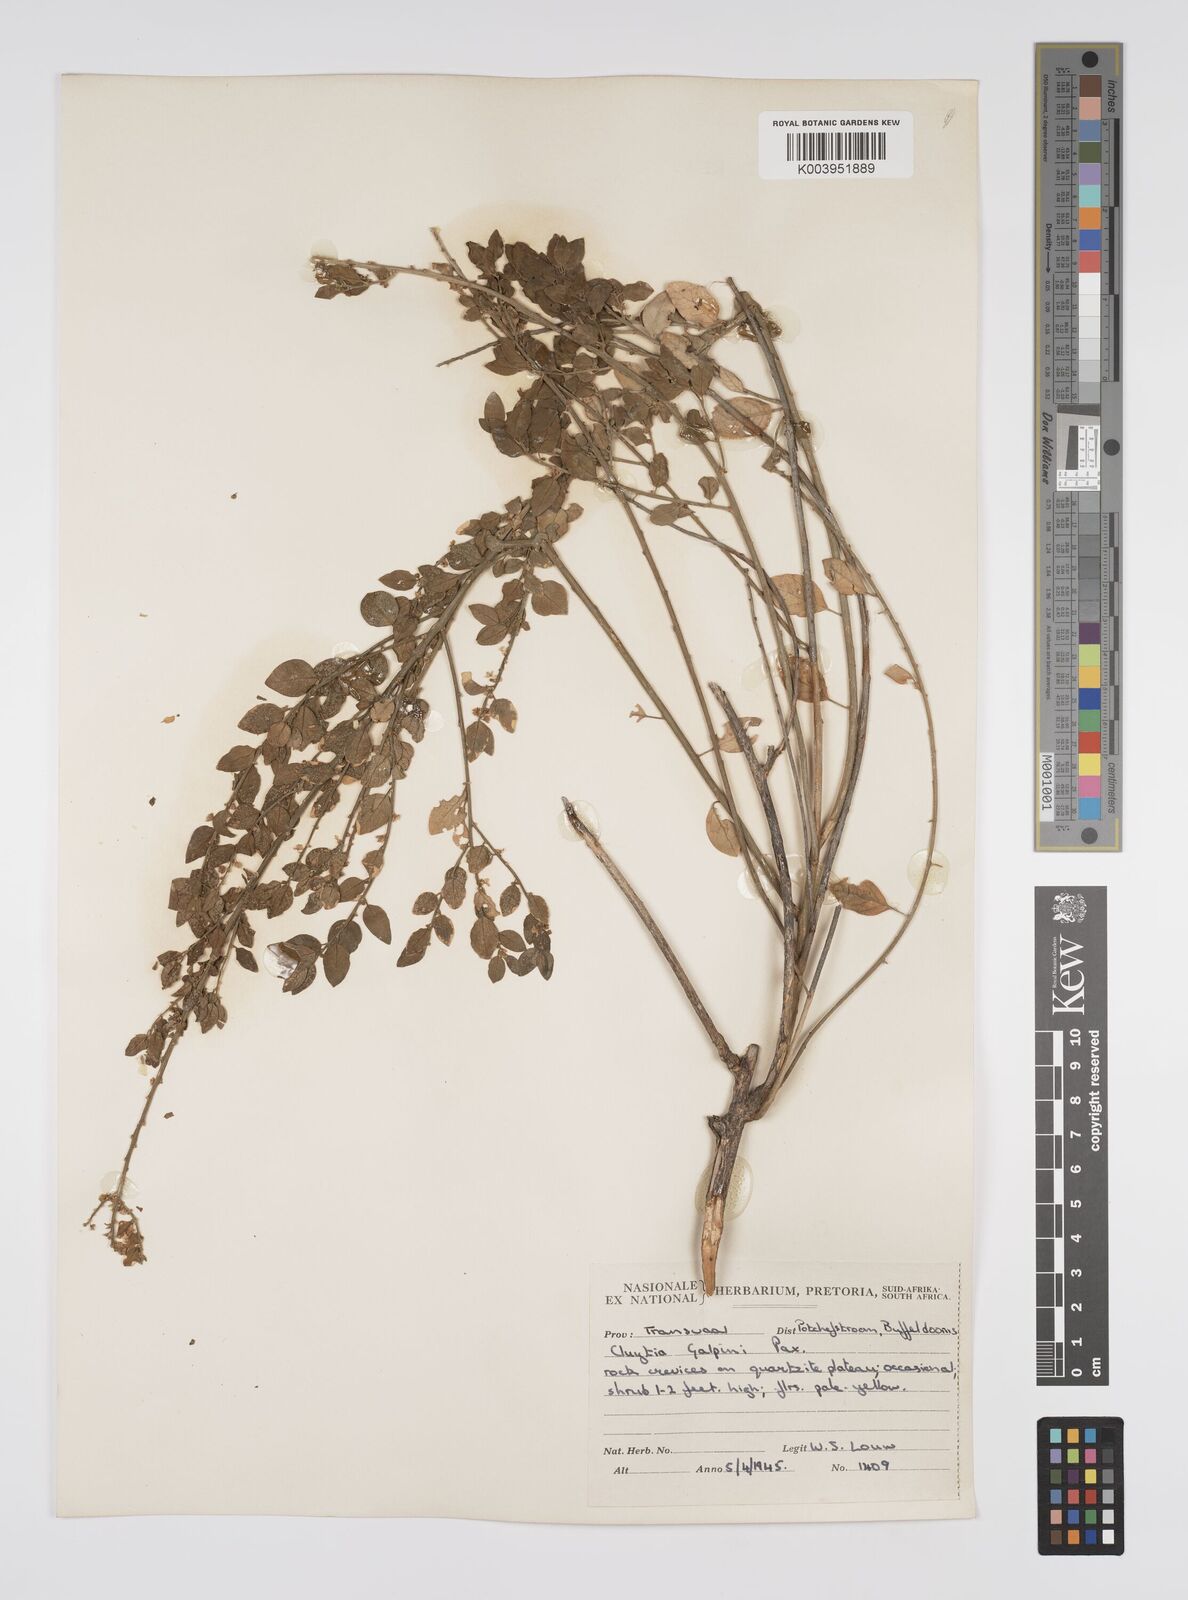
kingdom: Plantae
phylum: Tracheophyta
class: Magnoliopsida
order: Malpighiales
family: Peraceae
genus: Clutia
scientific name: Clutia galpinii
